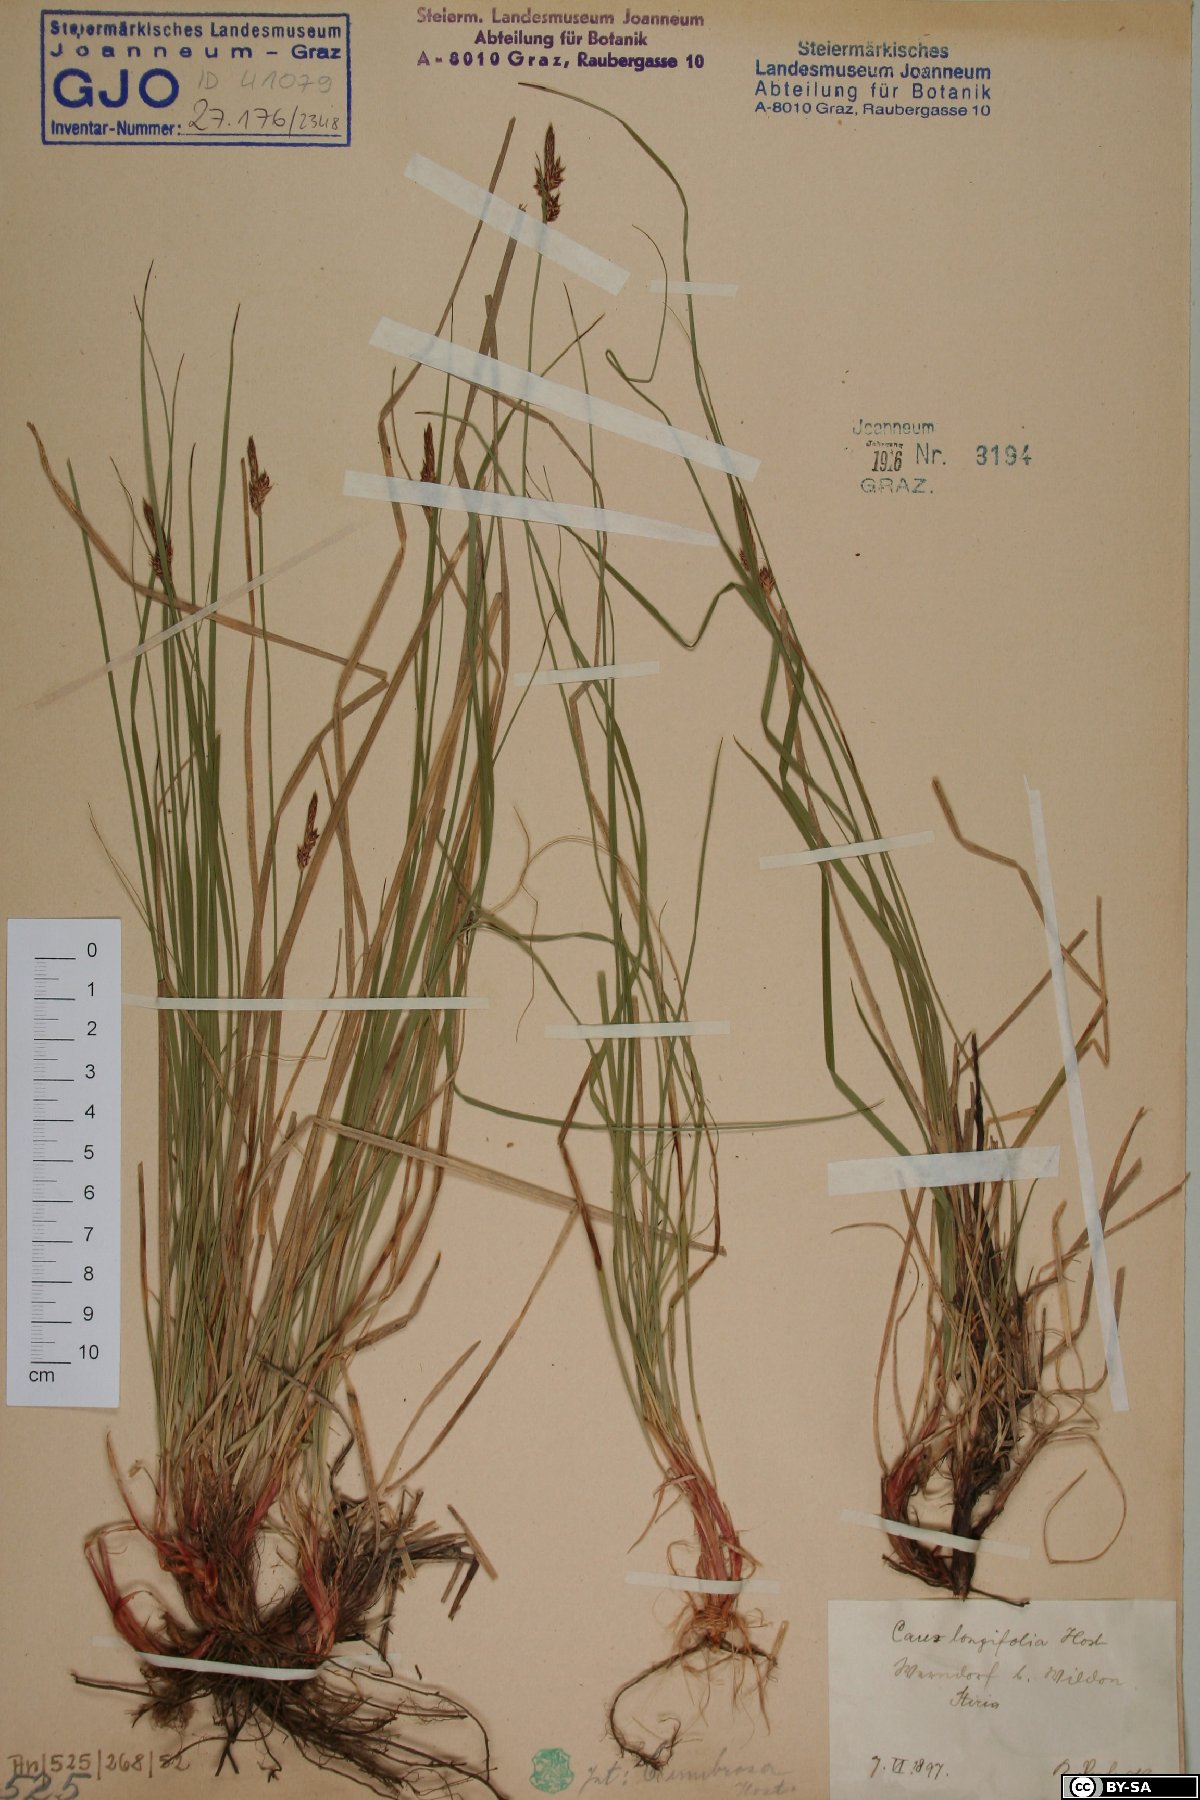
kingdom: Plantae
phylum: Tracheophyta
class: Liliopsida
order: Poales
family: Cyperaceae
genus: Carex
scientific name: Carex umbrosa
